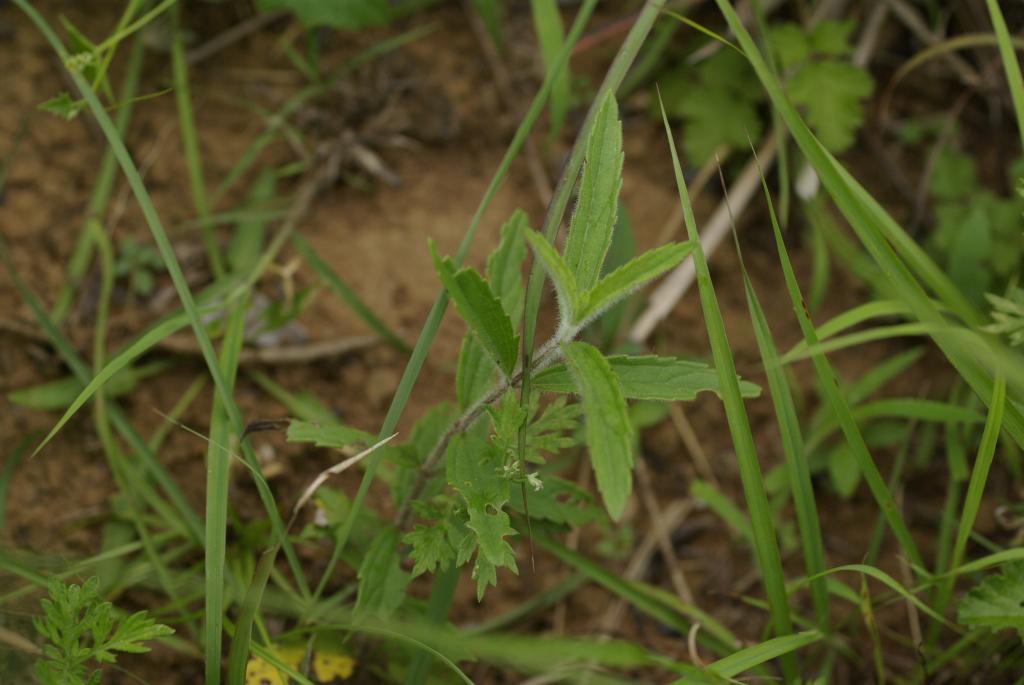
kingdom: Plantae
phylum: Tracheophyta
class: Magnoliopsida
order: Asterales
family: Asteraceae
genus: Eupatorium
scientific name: Eupatorium lindleyanum
